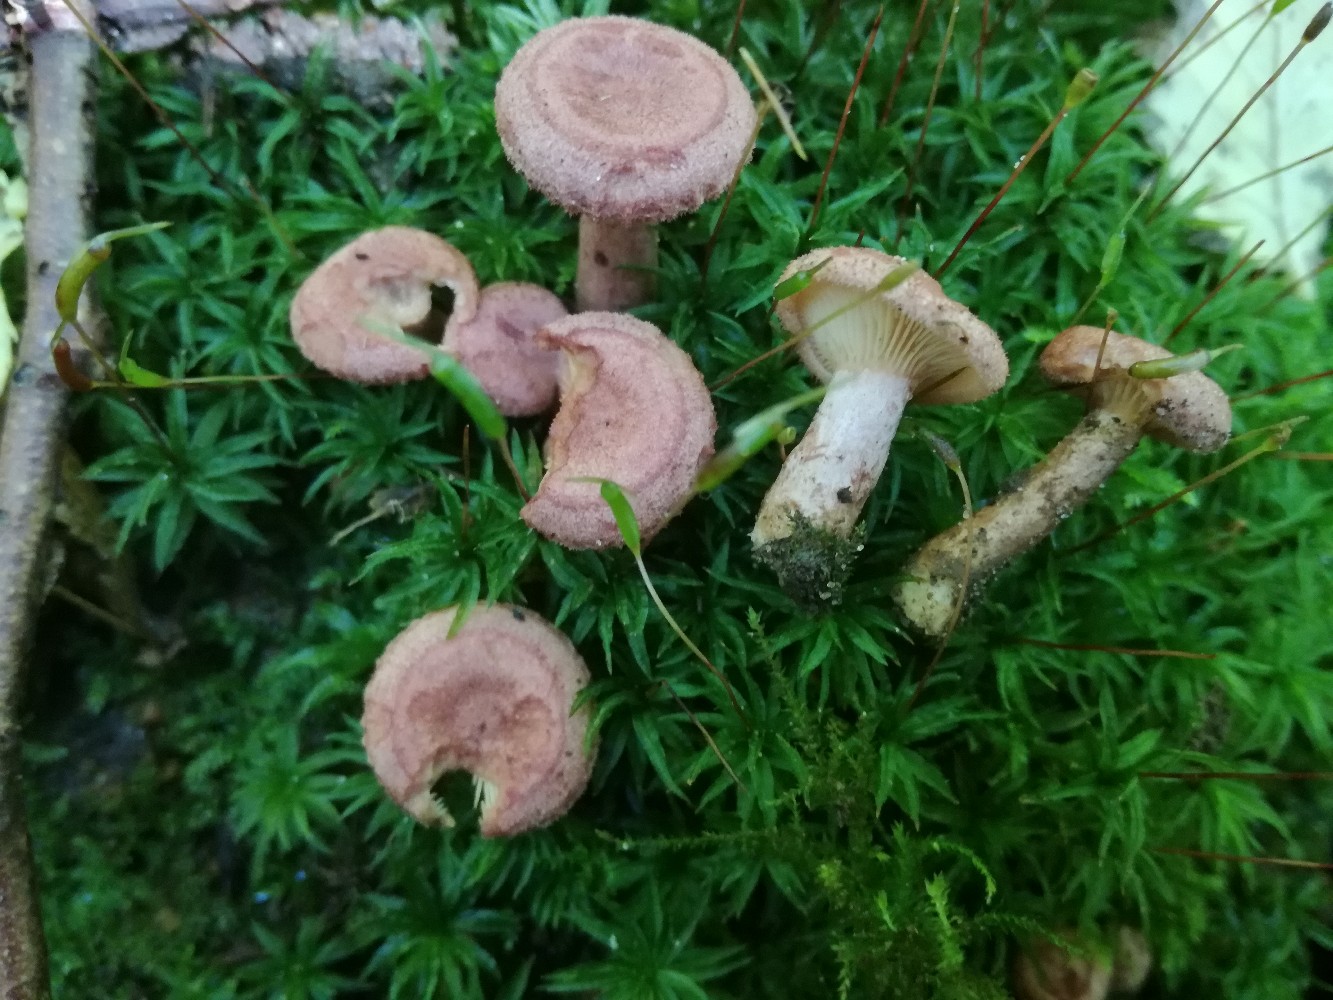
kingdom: Fungi
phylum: Basidiomycota
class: Agaricomycetes
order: Russulales
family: Russulaceae
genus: Lactarius
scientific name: Lactarius spinosulus
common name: småskællet mælkehat
